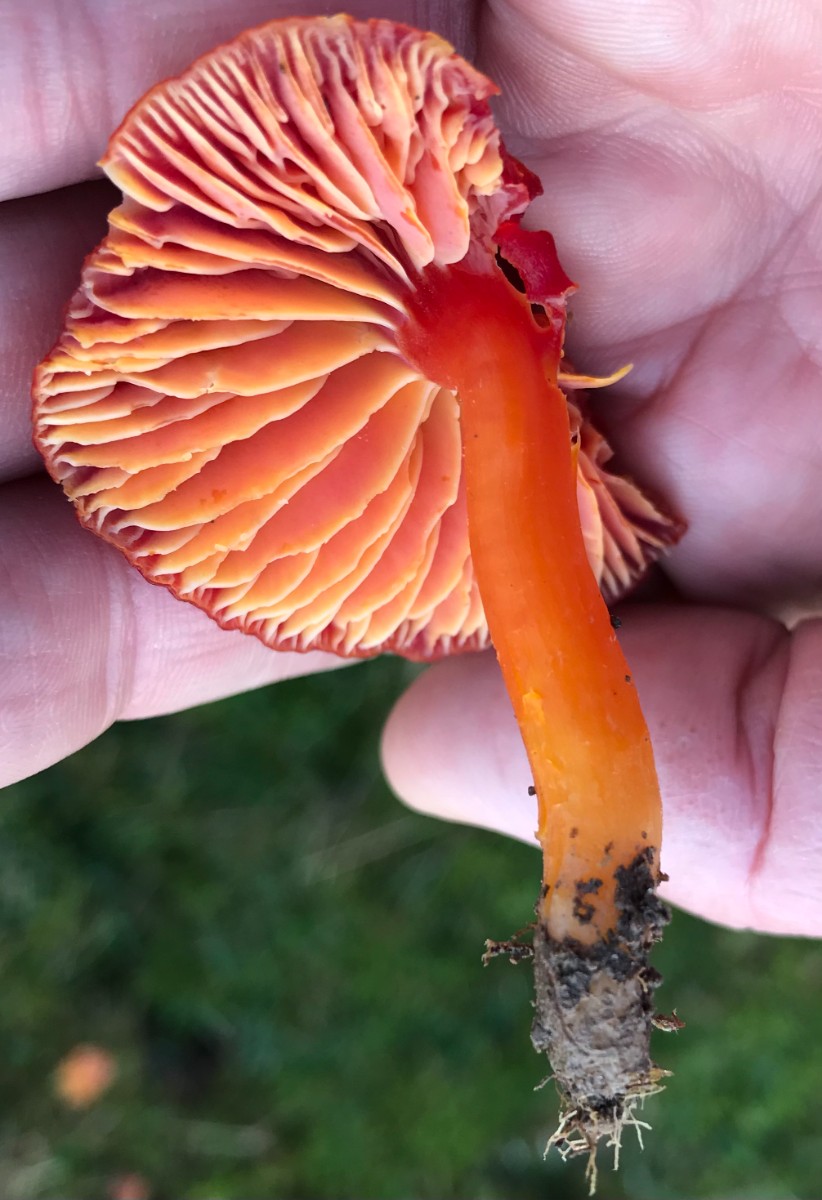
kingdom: Fungi
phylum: Basidiomycota
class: Agaricomycetes
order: Agaricales
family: Hygrophoraceae
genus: Hygrocybe
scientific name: Hygrocybe coccinea
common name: cinnober-vokshat
